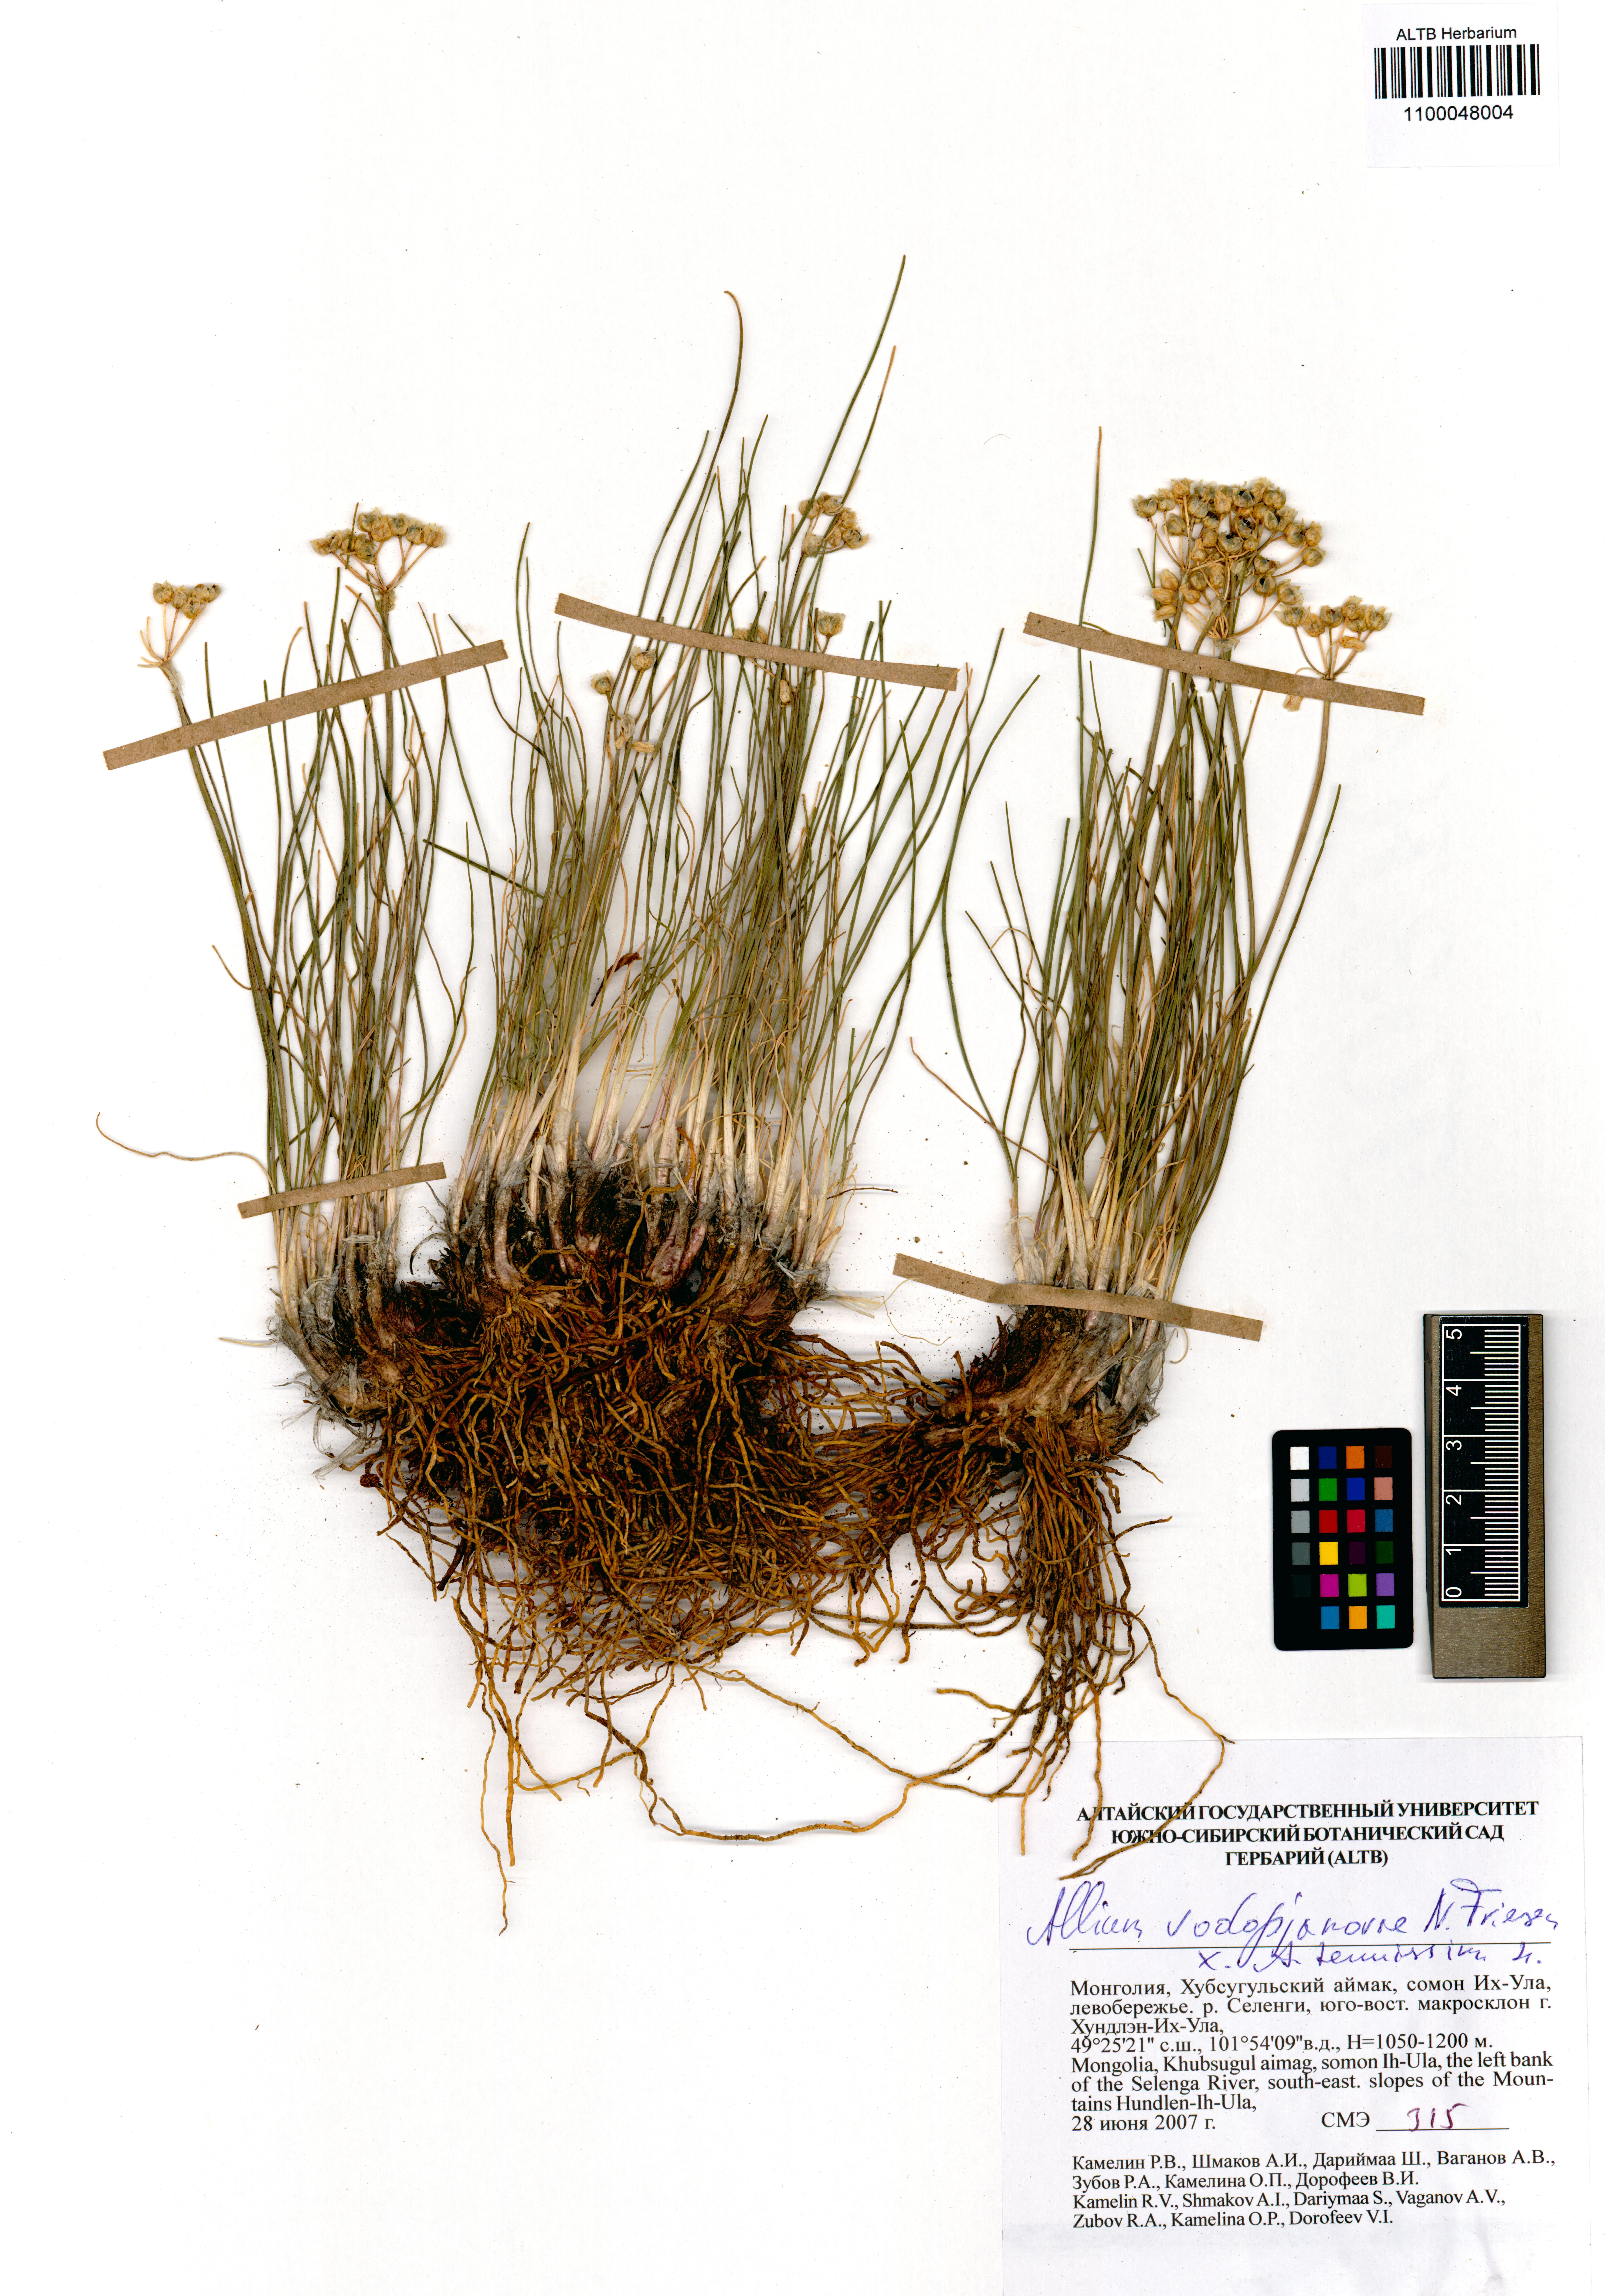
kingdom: Plantae
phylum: Tracheophyta
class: Liliopsida
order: Asparagales
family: Amaryllidaceae
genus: Allium
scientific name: Allium vodopjanovae
